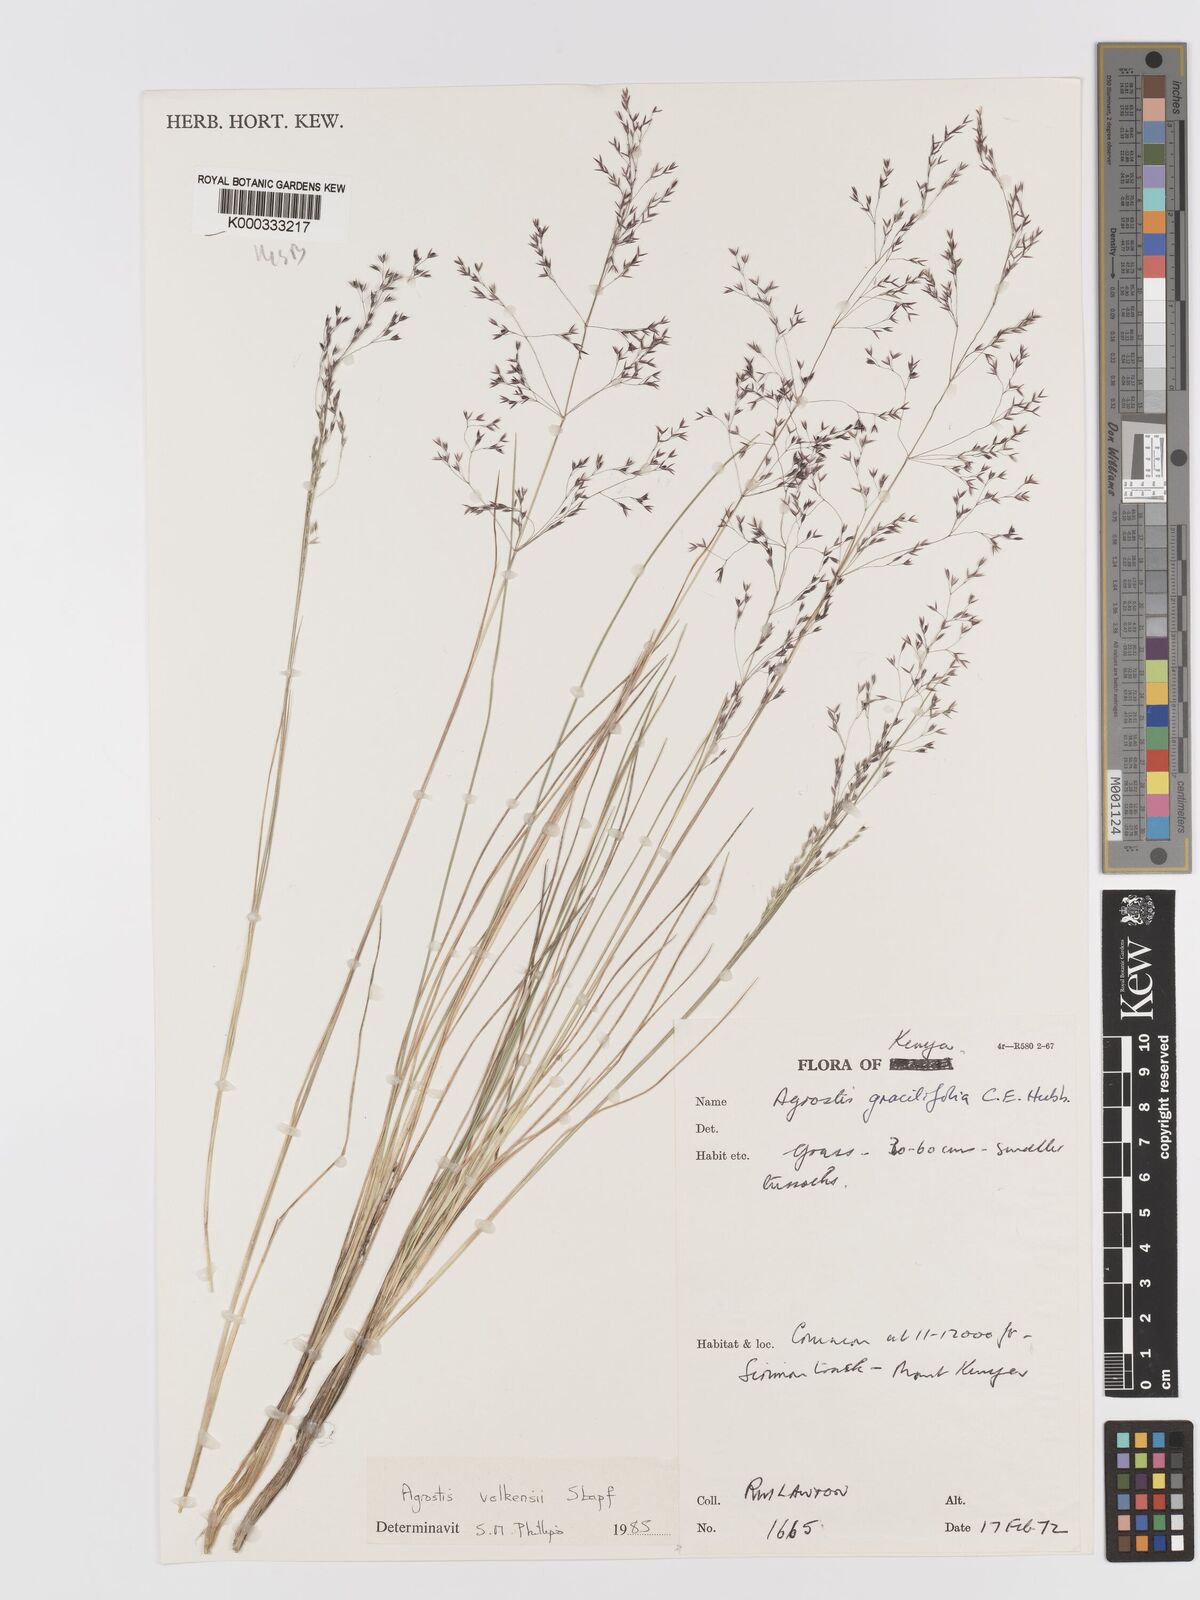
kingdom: Plantae
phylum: Tracheophyta
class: Liliopsida
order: Poales
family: Poaceae
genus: Agrostis
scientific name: Agrostis volkensii
